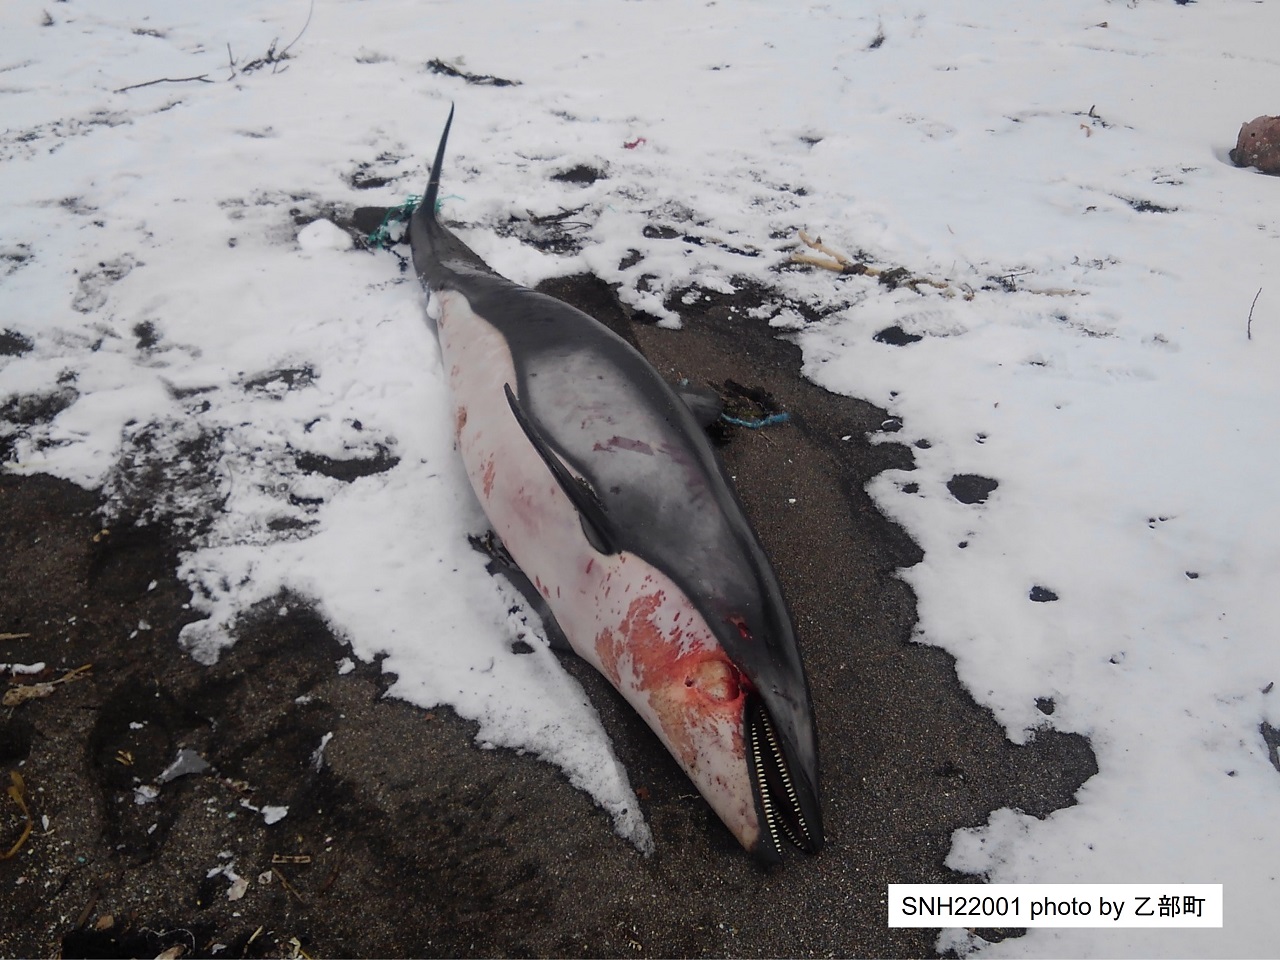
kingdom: Animalia
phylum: Chordata
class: Mammalia
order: Cetacea
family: Delphinidae
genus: Lagenorhynchus
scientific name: Lagenorhynchus obliquidens
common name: Pacific white-sided dolphin
